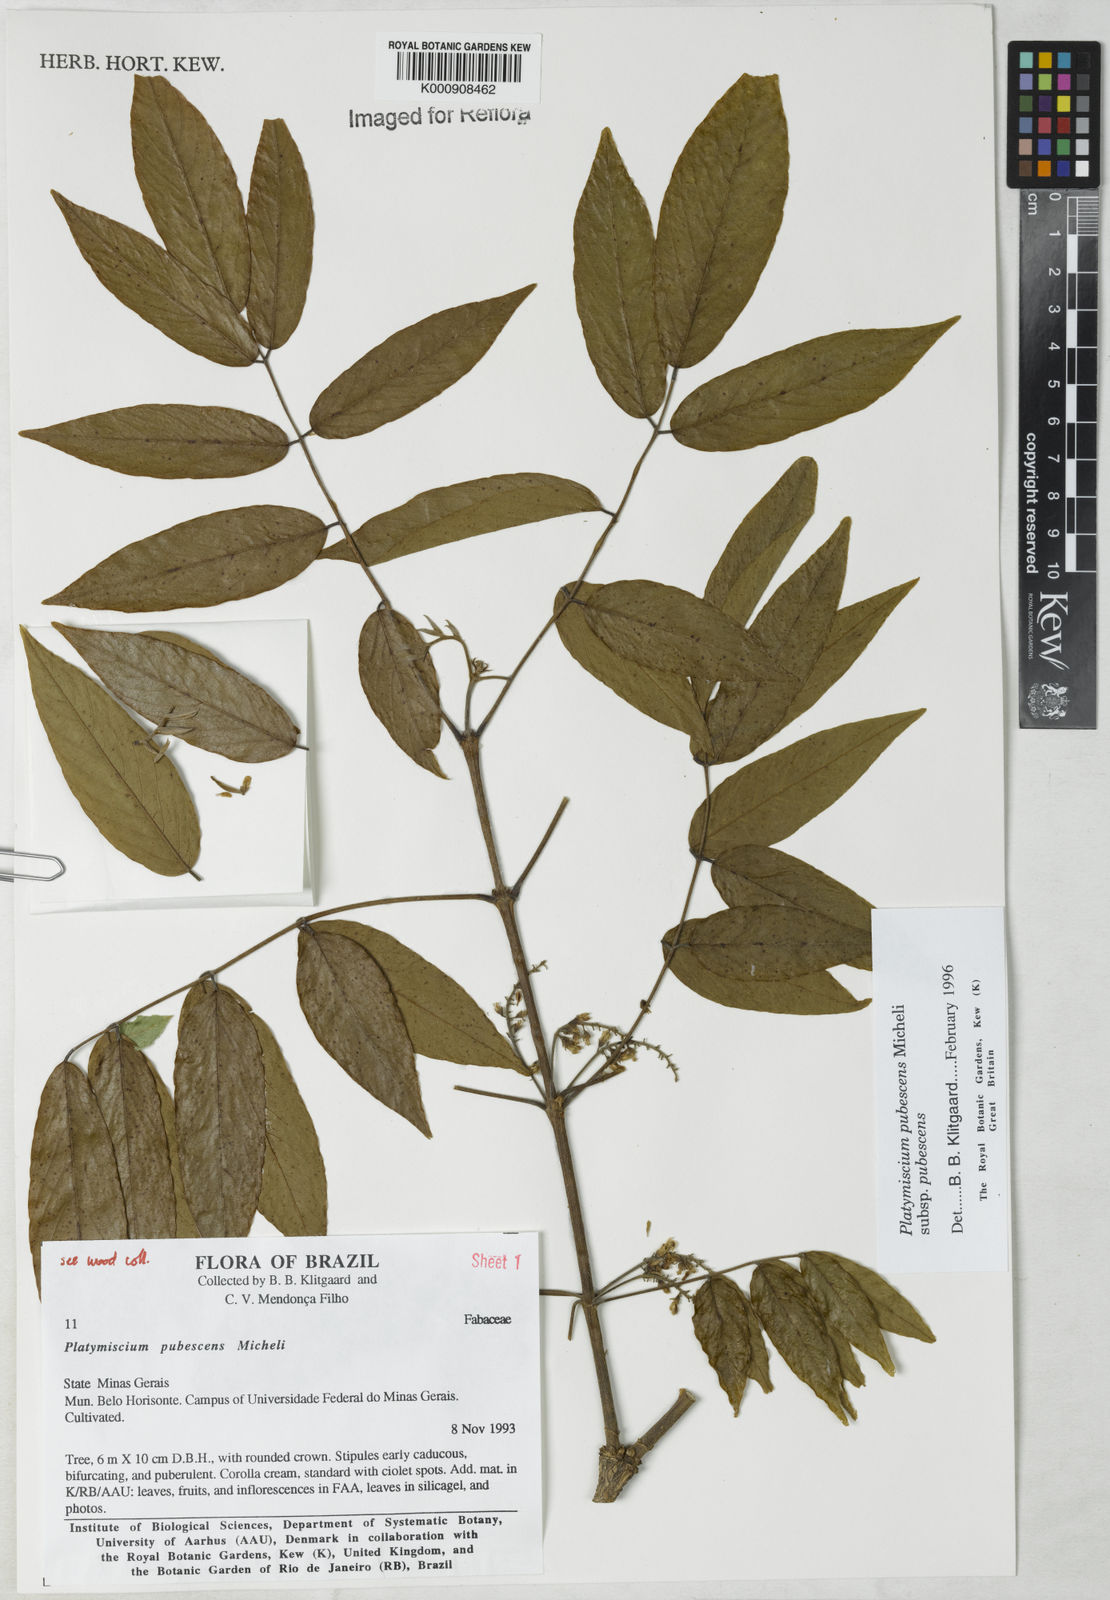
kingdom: Plantae
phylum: Tracheophyta
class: Magnoliopsida
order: Fabales
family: Fabaceae
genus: Platymiscium
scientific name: Platymiscium pubescens
